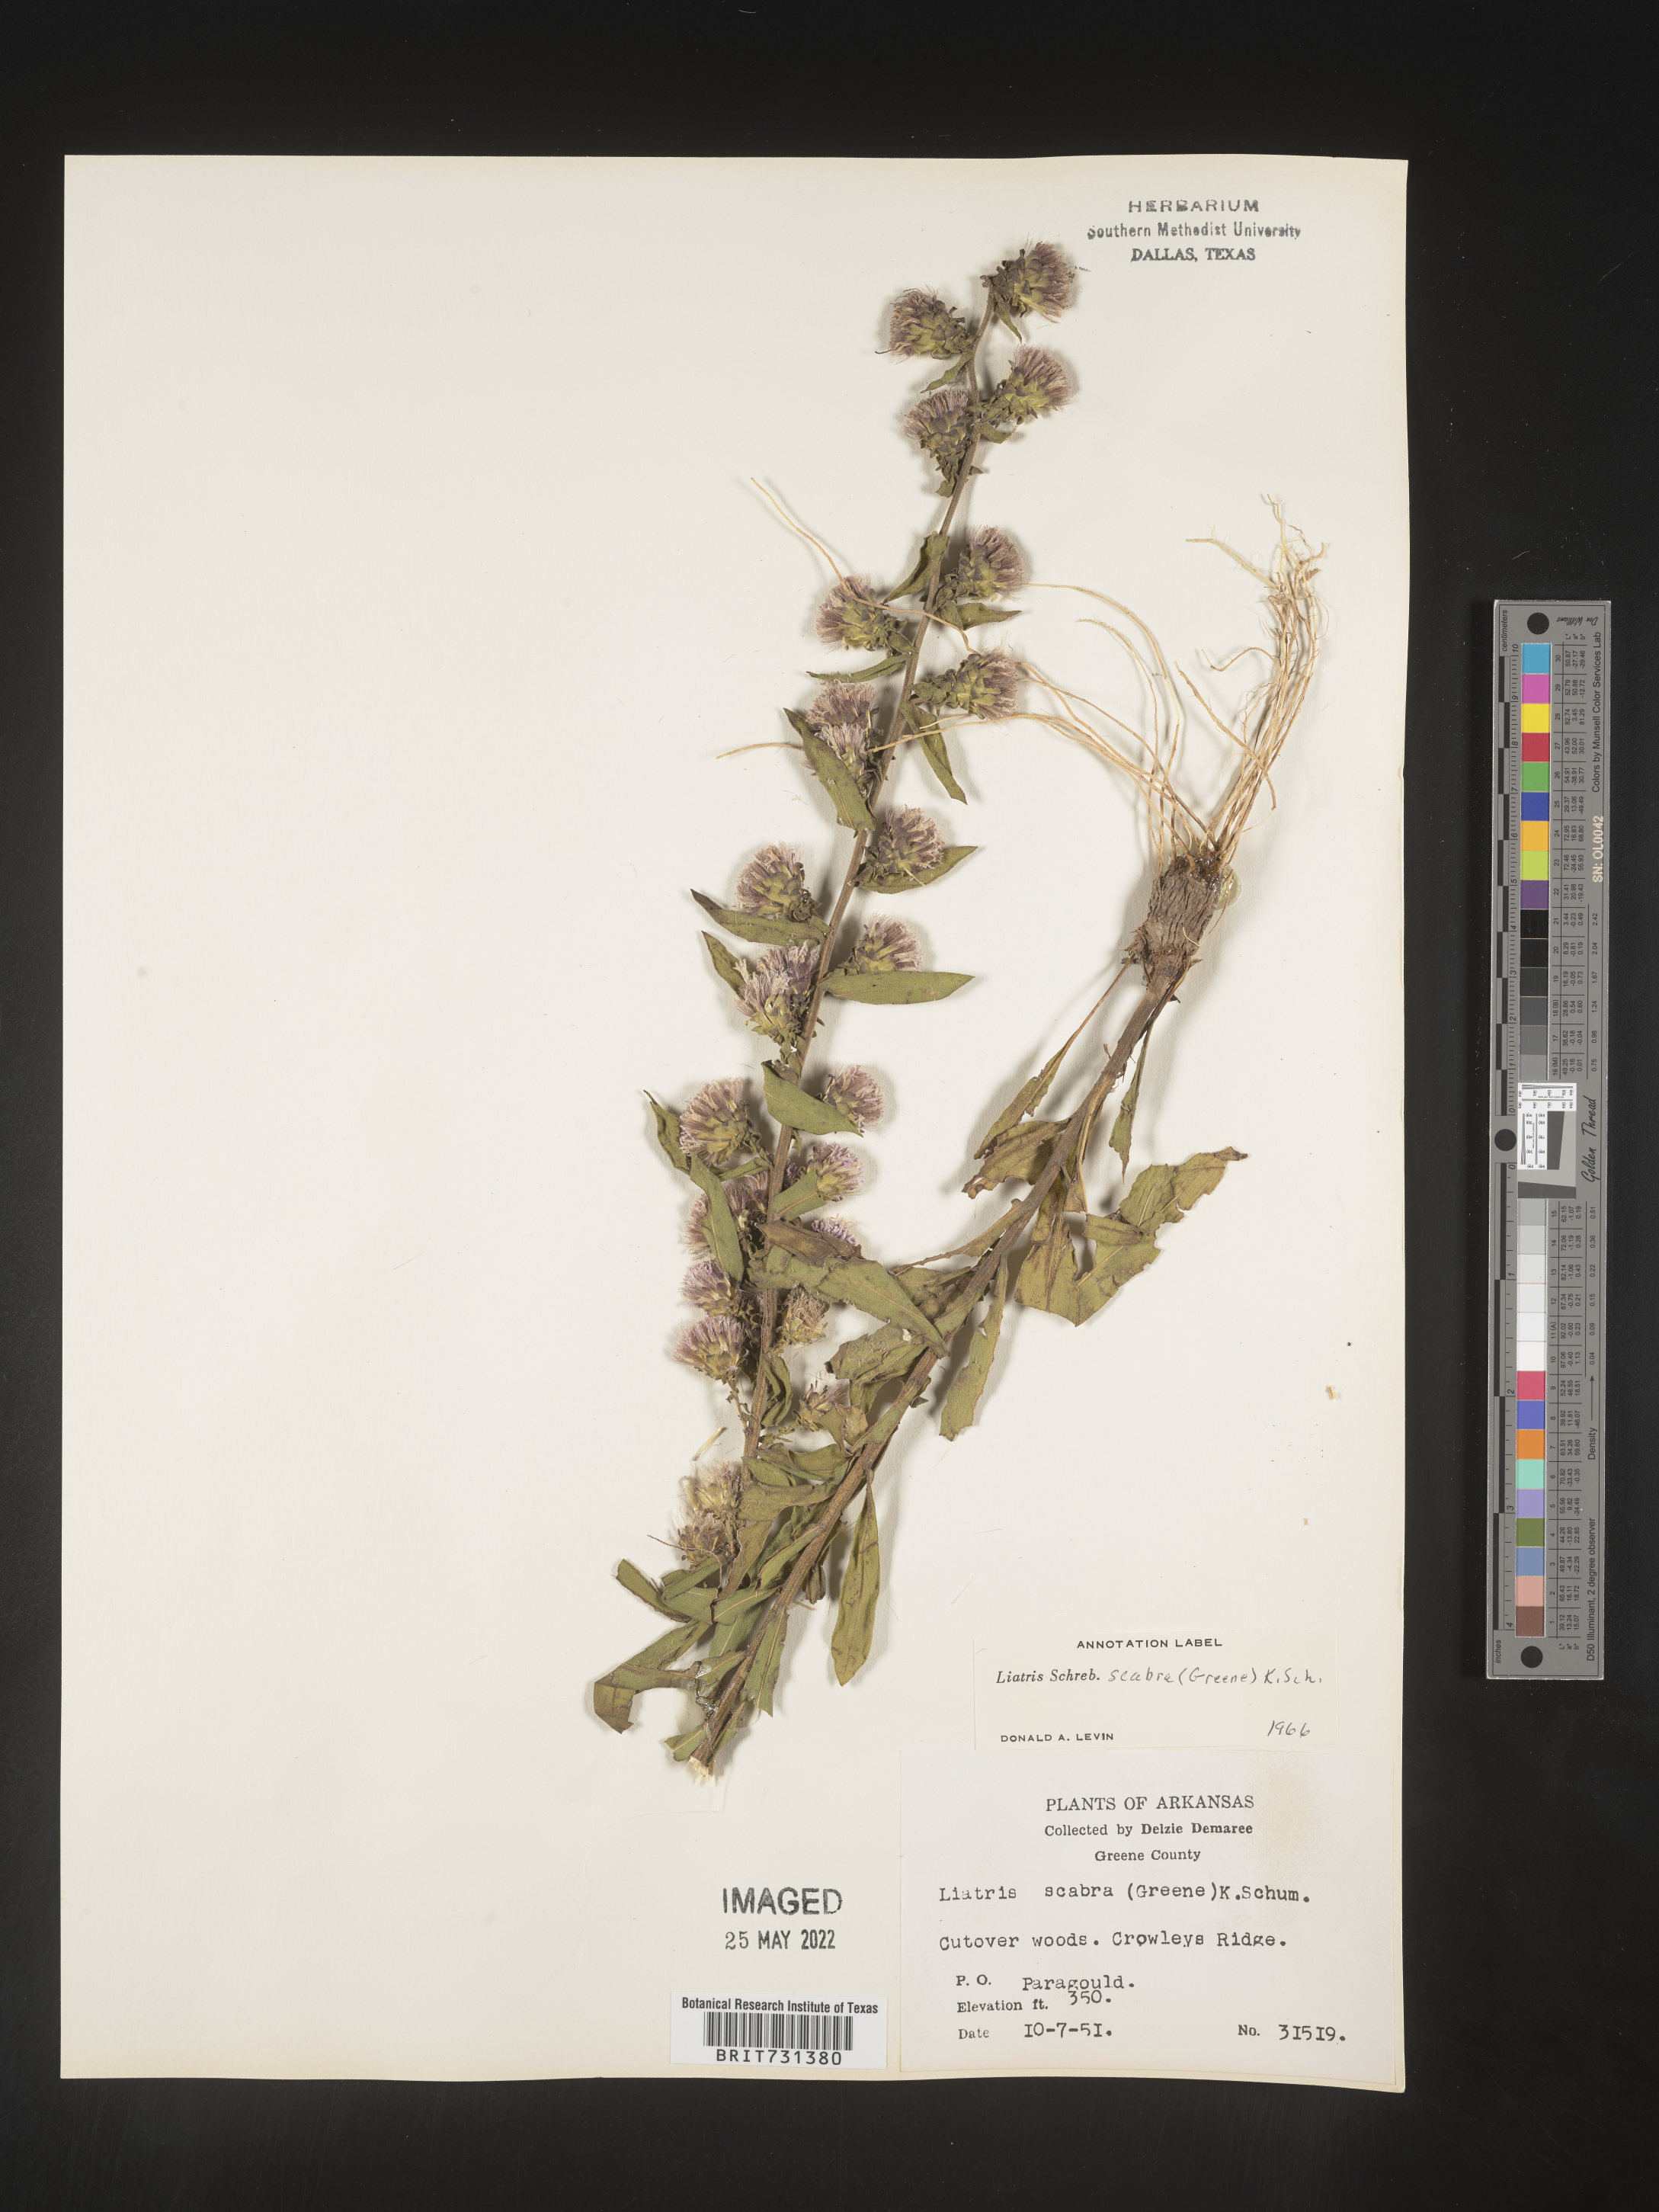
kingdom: Plantae
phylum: Tracheophyta
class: Magnoliopsida
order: Asterales
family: Asteraceae
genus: Liatris
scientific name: Liatris squarrulosa
